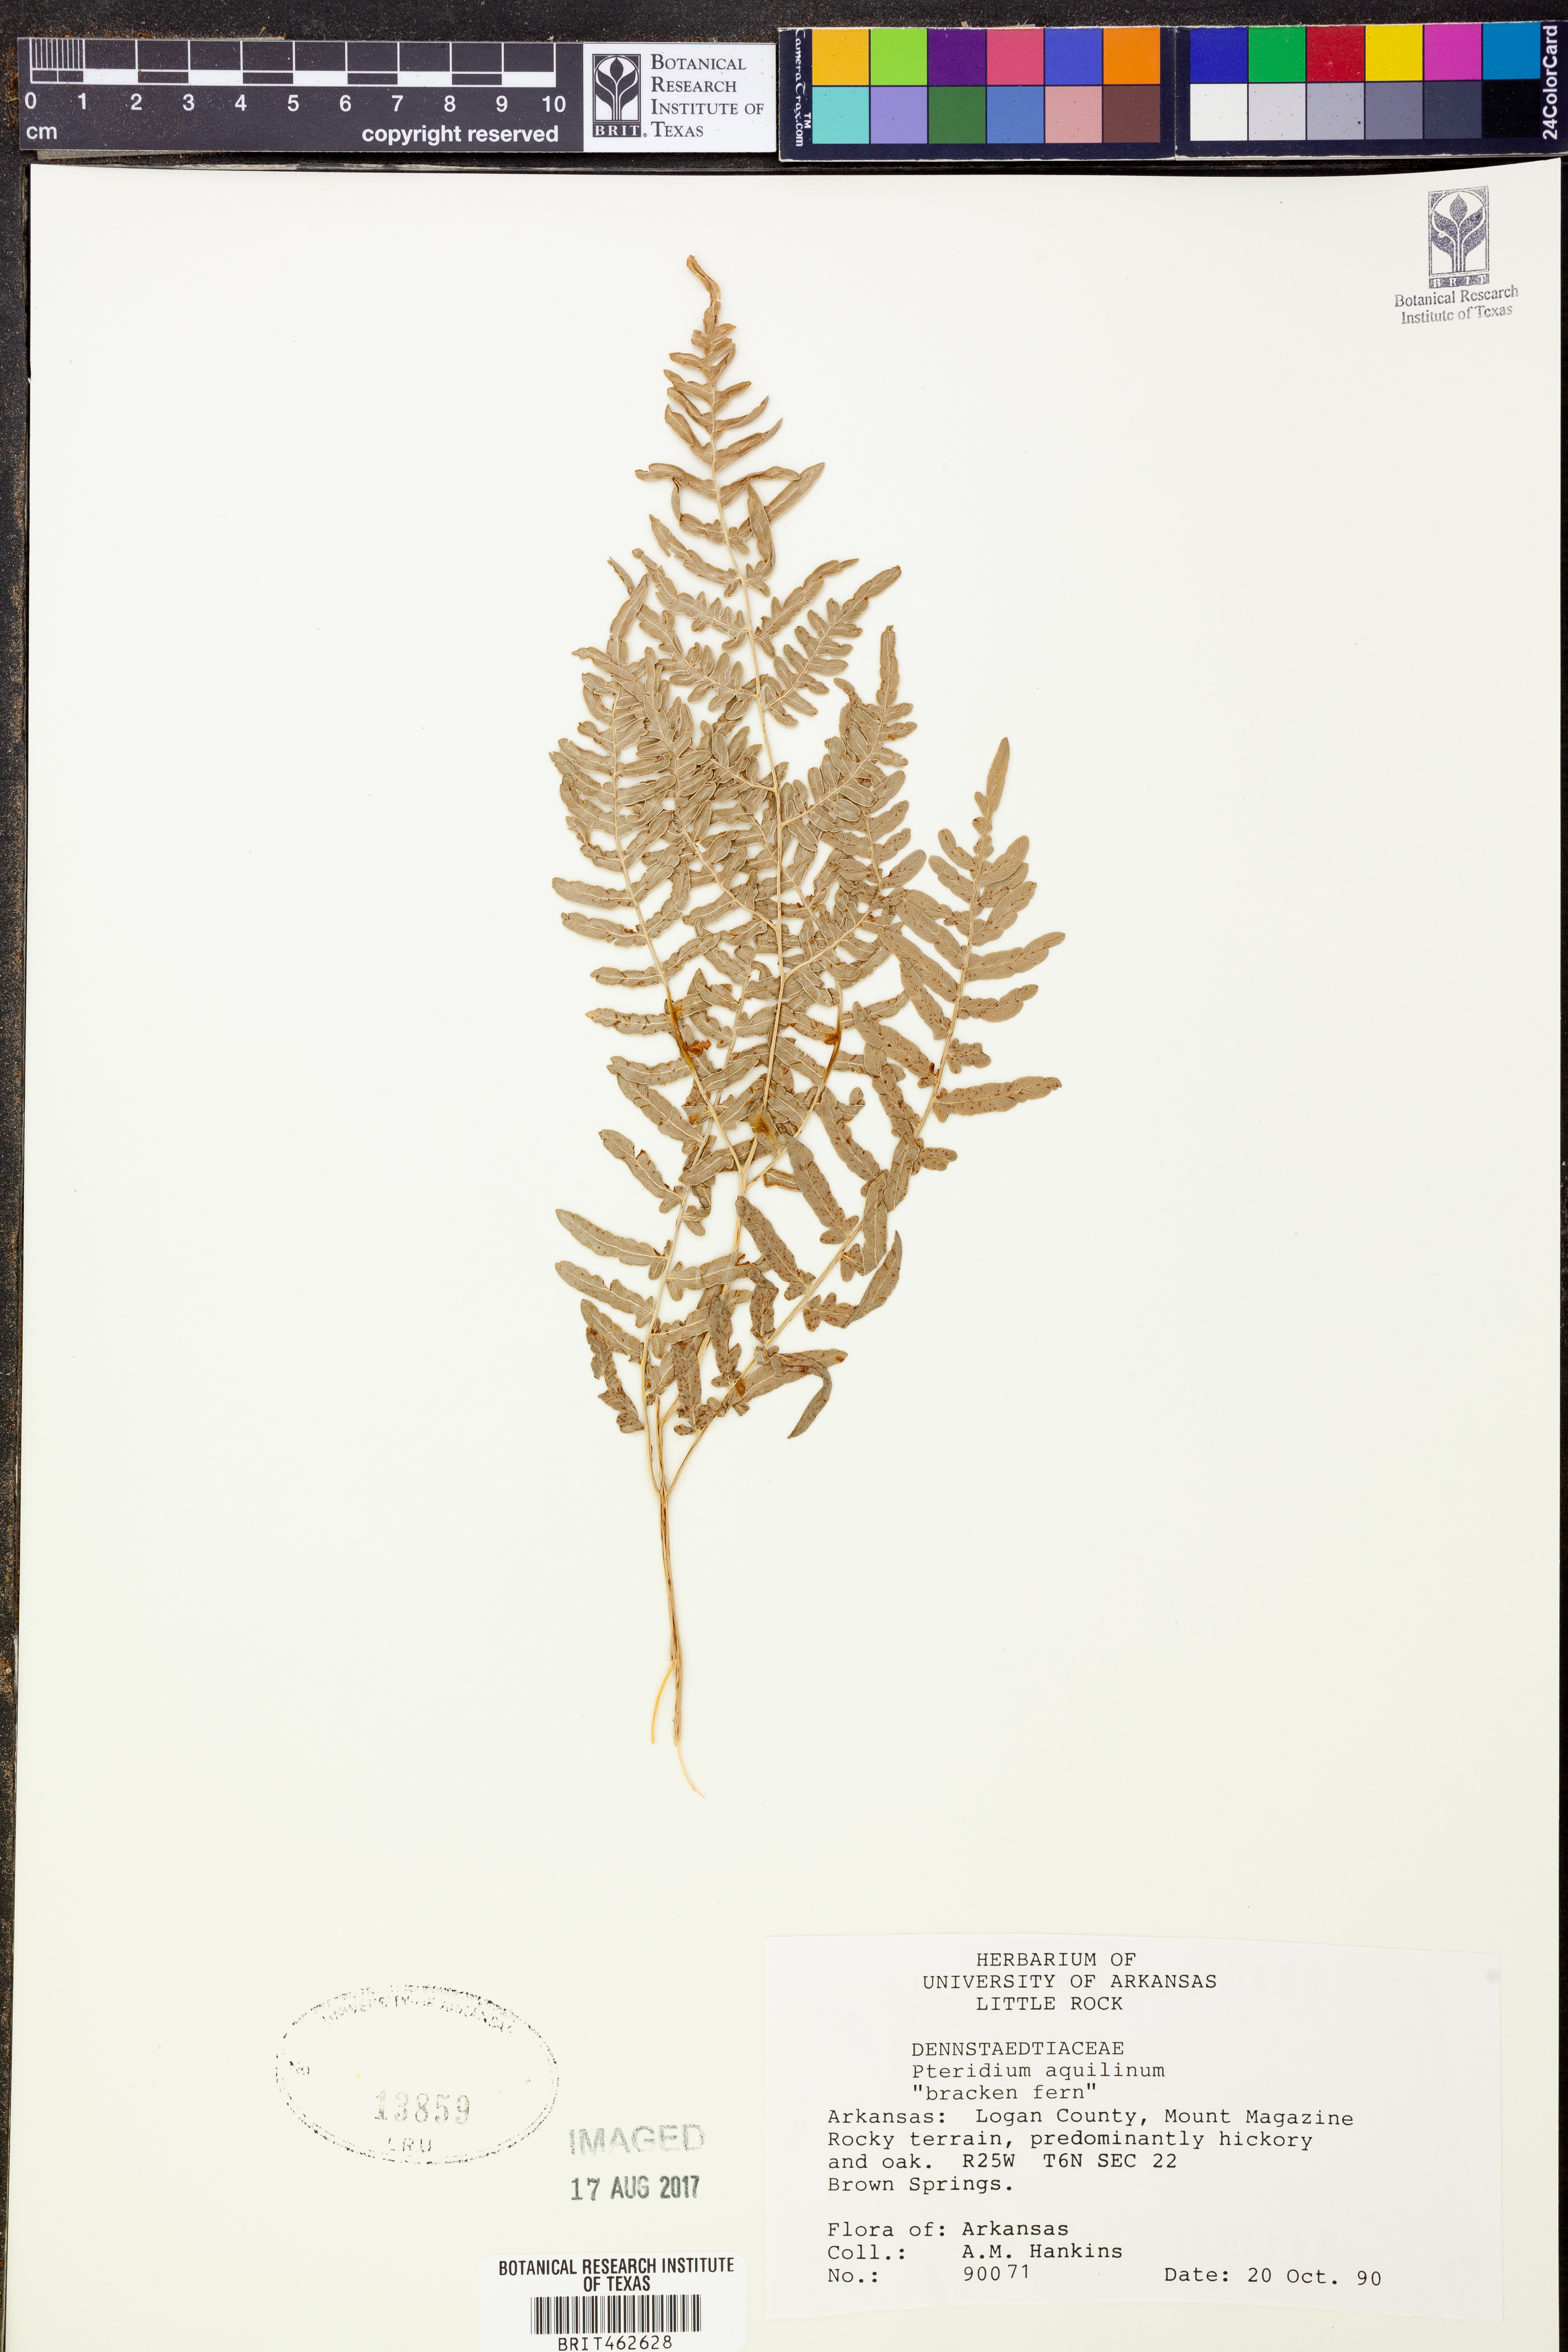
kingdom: Plantae
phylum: Tracheophyta
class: Polypodiopsida
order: Polypodiales
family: Dennstaedtiaceae
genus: Pteridium
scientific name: Pteridium aquilinum
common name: Bracken
